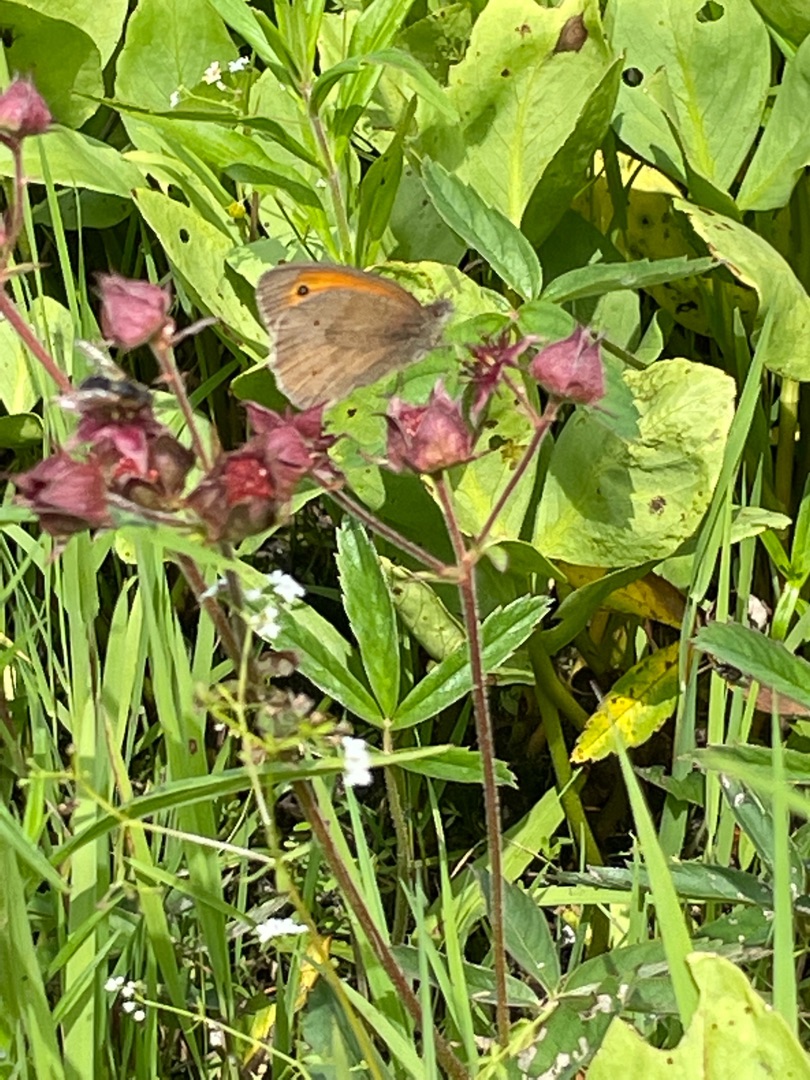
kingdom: Animalia
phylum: Arthropoda
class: Insecta
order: Lepidoptera
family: Nymphalidae
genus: Maniola
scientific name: Maniola jurtina
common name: Græsrandøje
